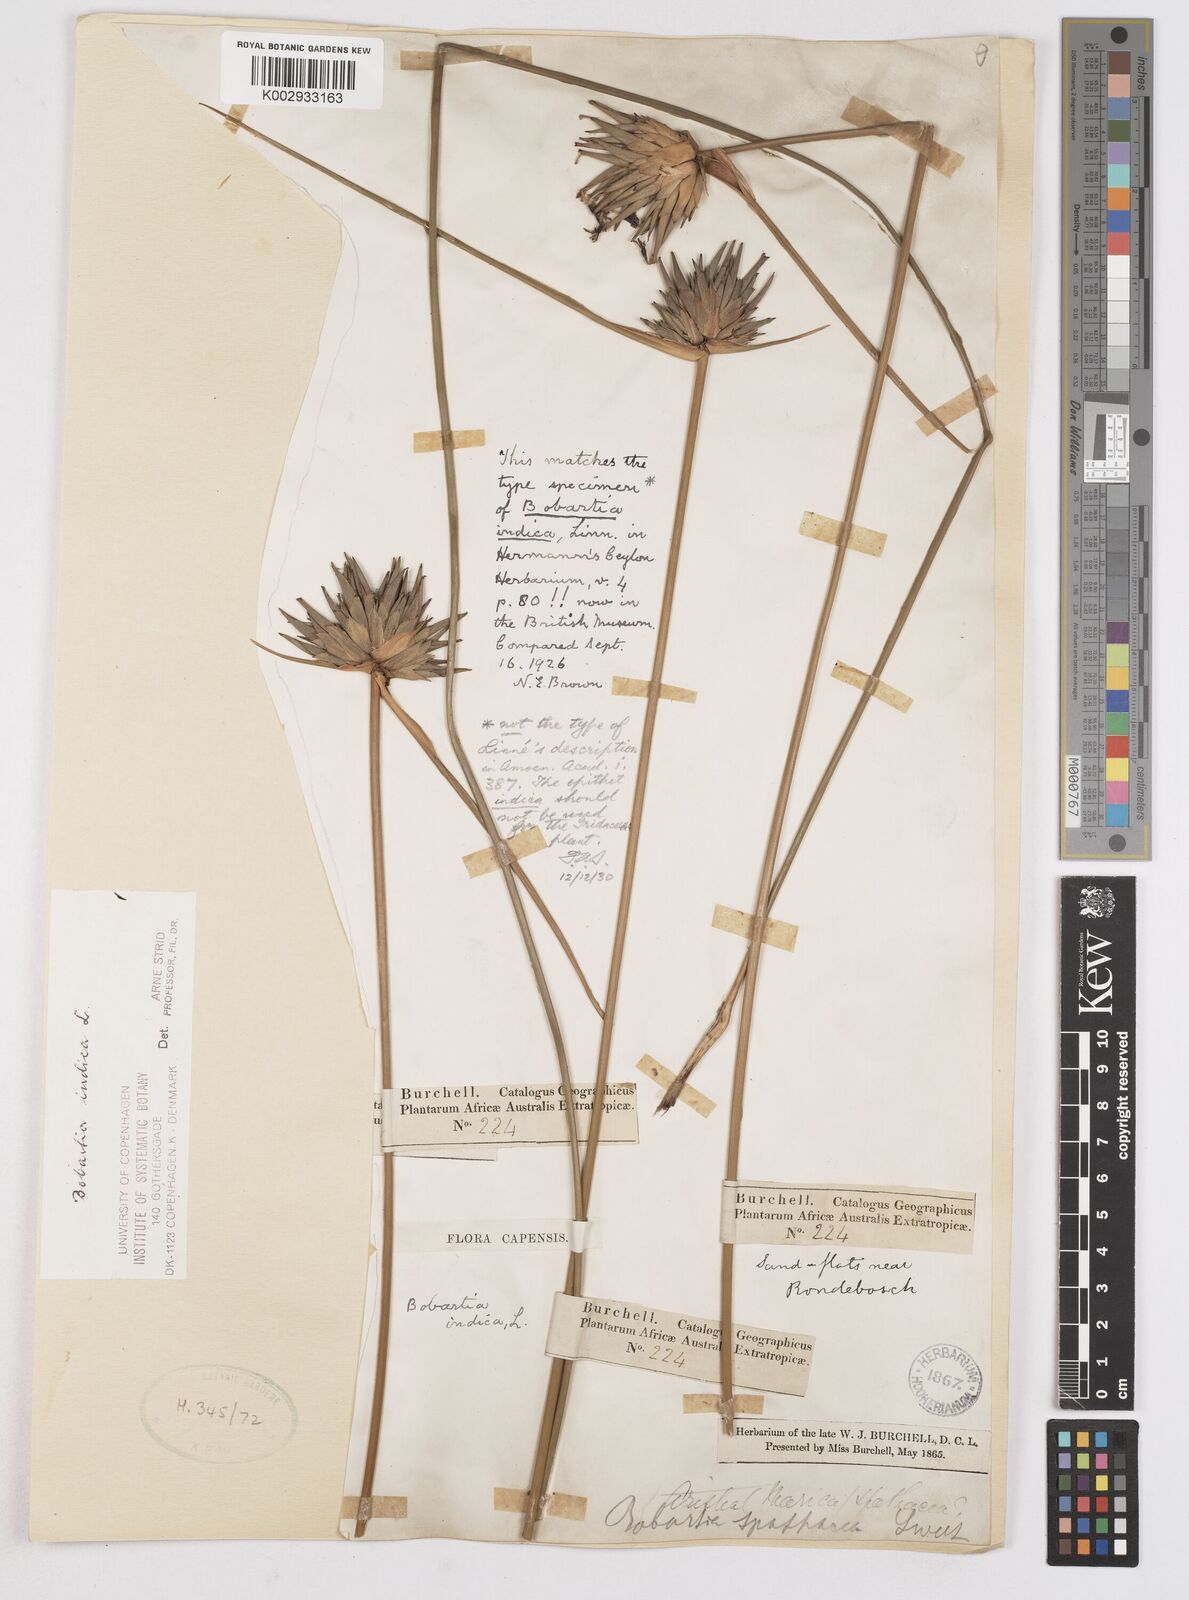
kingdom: Plantae
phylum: Tracheophyta
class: Liliopsida
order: Asparagales
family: Iridaceae
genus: Bobartia
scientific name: Bobartia indica
